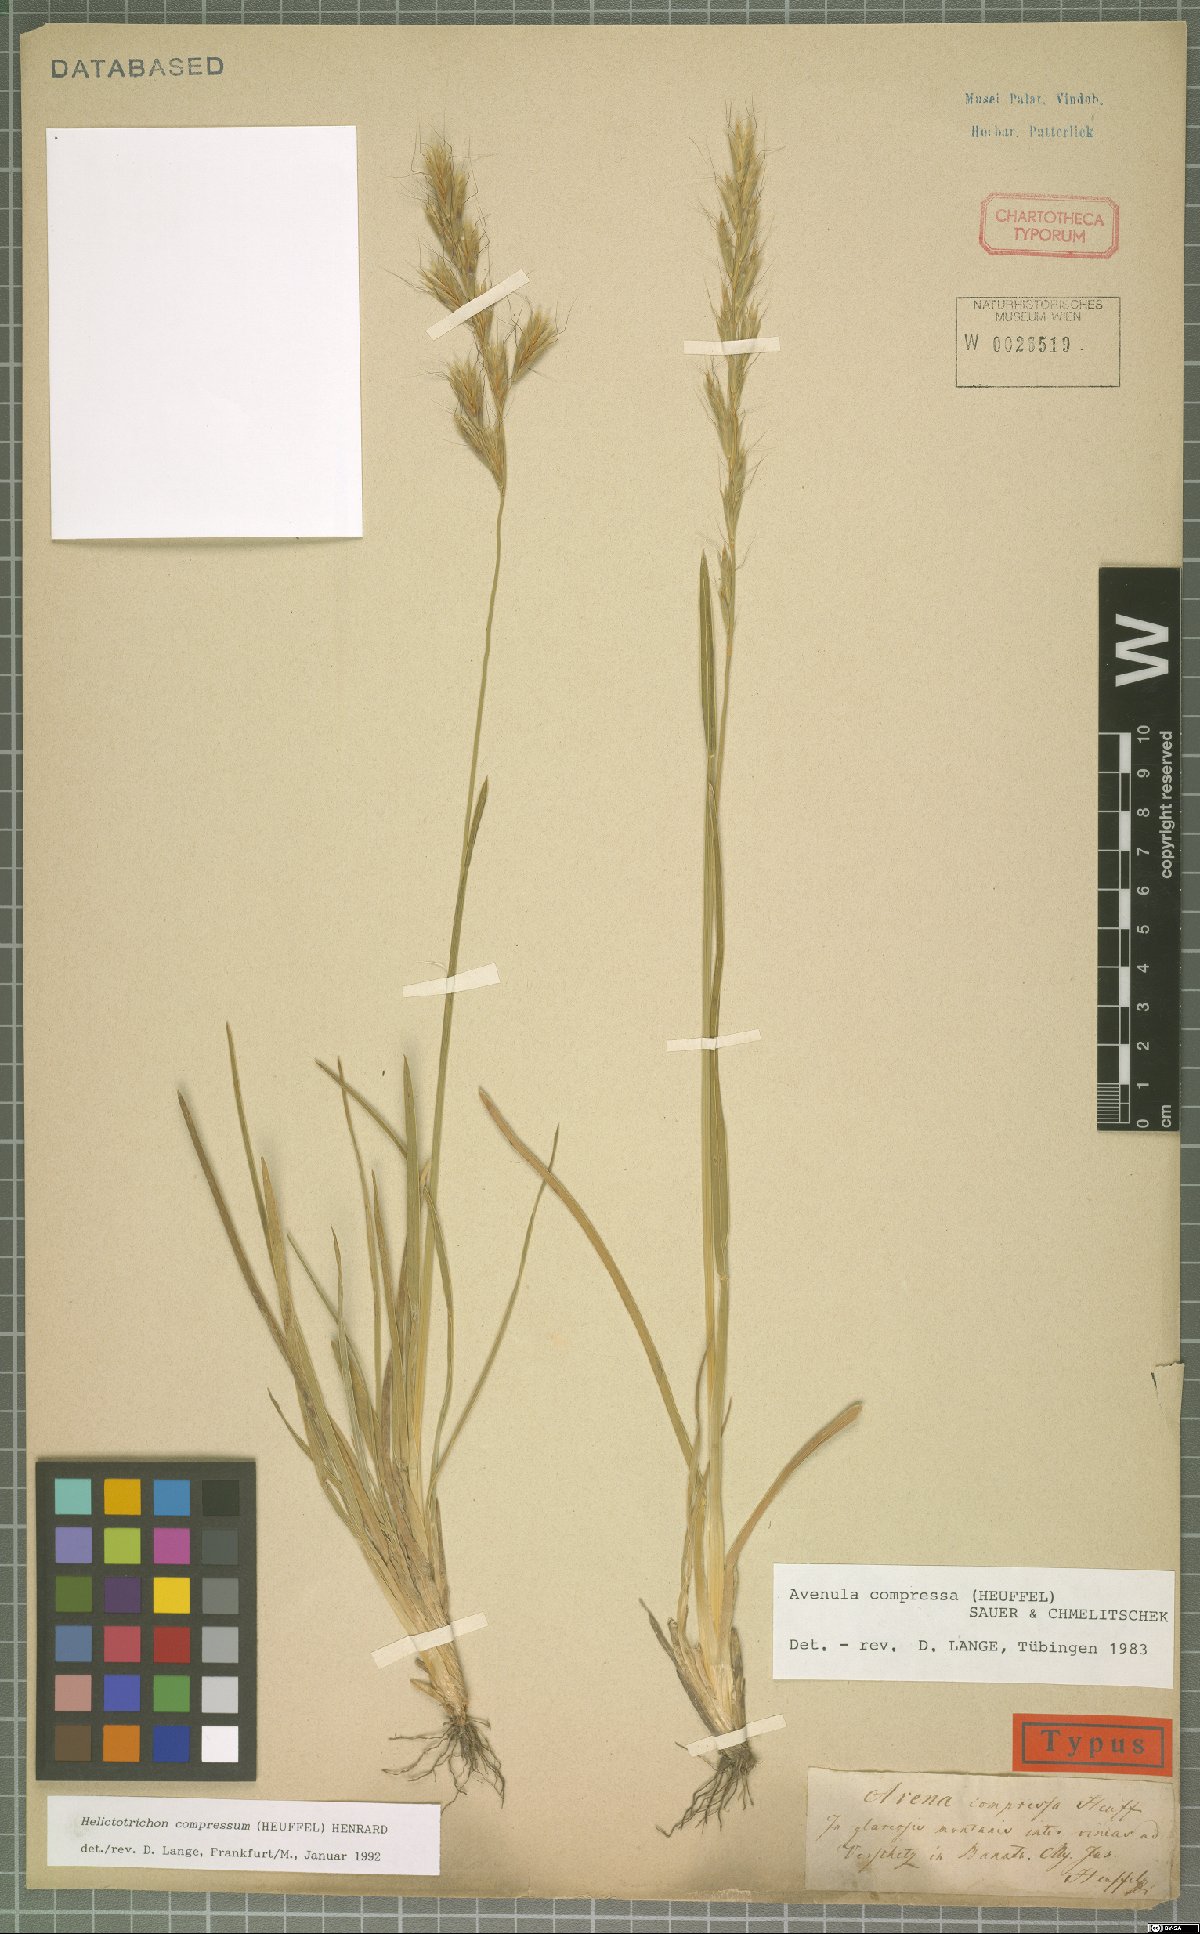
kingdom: Plantae
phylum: Tracheophyta
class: Liliopsida
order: Poales
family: Poaceae
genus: Helictochloa
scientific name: Helictochloa compressa
